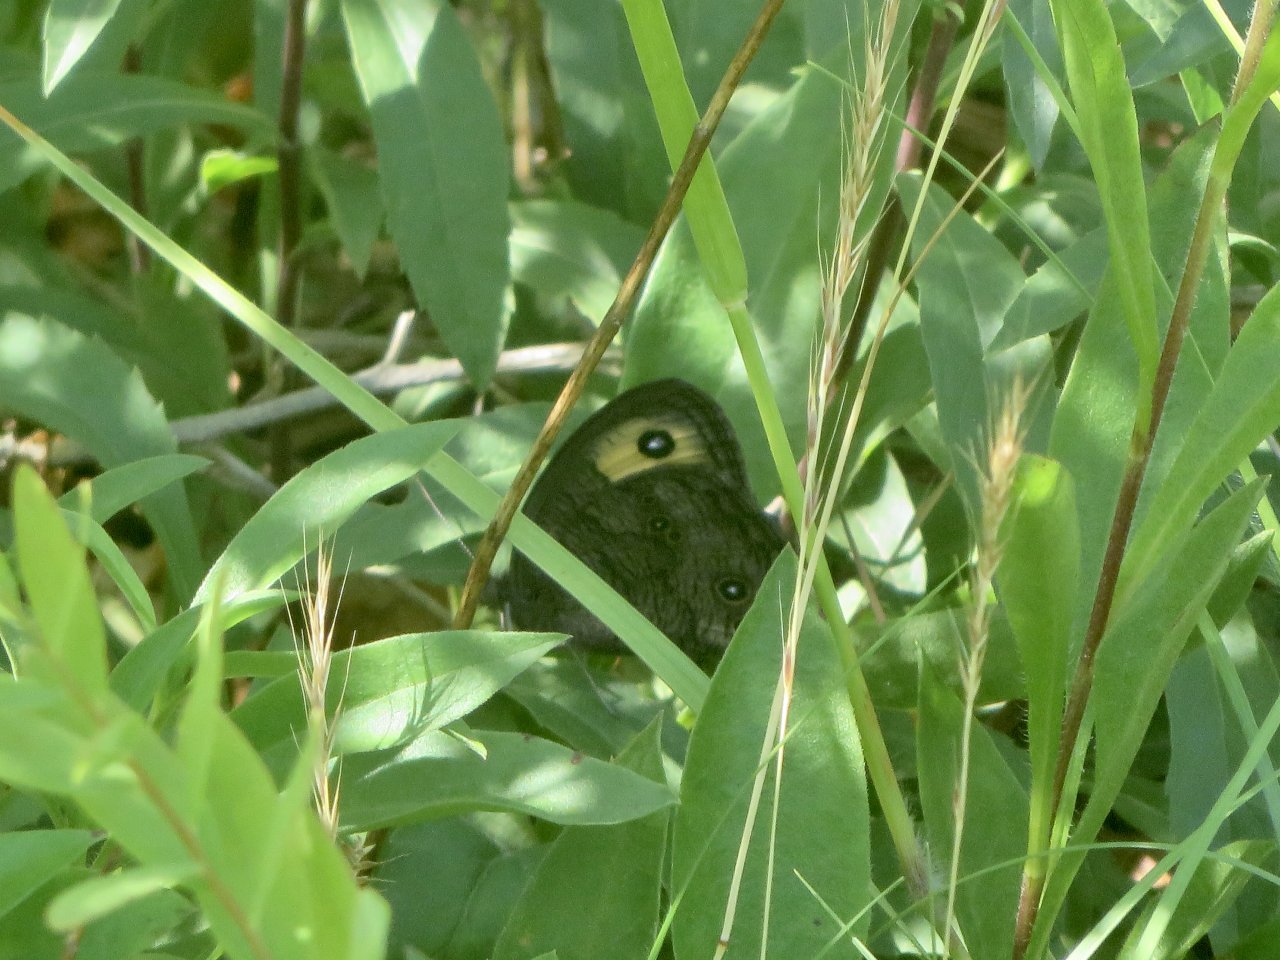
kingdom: Animalia
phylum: Arthropoda
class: Insecta
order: Lepidoptera
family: Nymphalidae
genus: Cercyonis
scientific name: Cercyonis pegala
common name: Common Wood-Nymph
